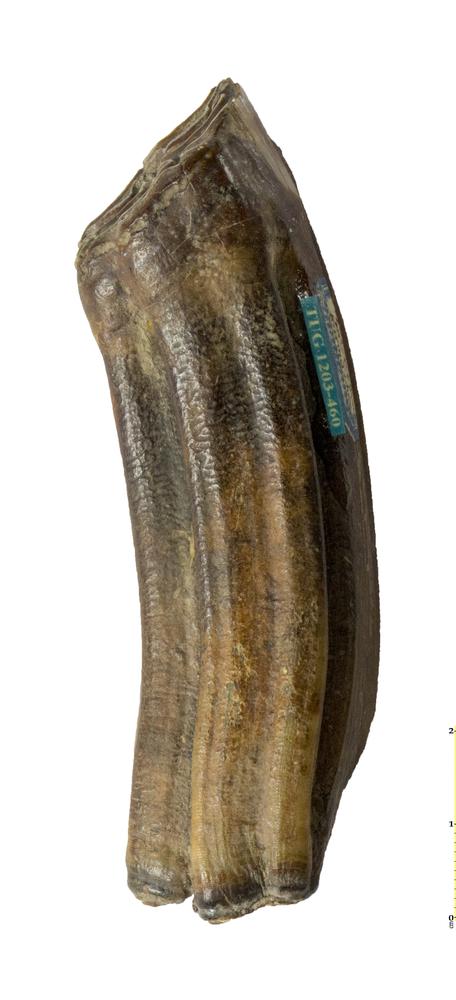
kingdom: Animalia
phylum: Chordata
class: Mammalia
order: Perissodactyla
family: Equidae
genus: Equus
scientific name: Equus
